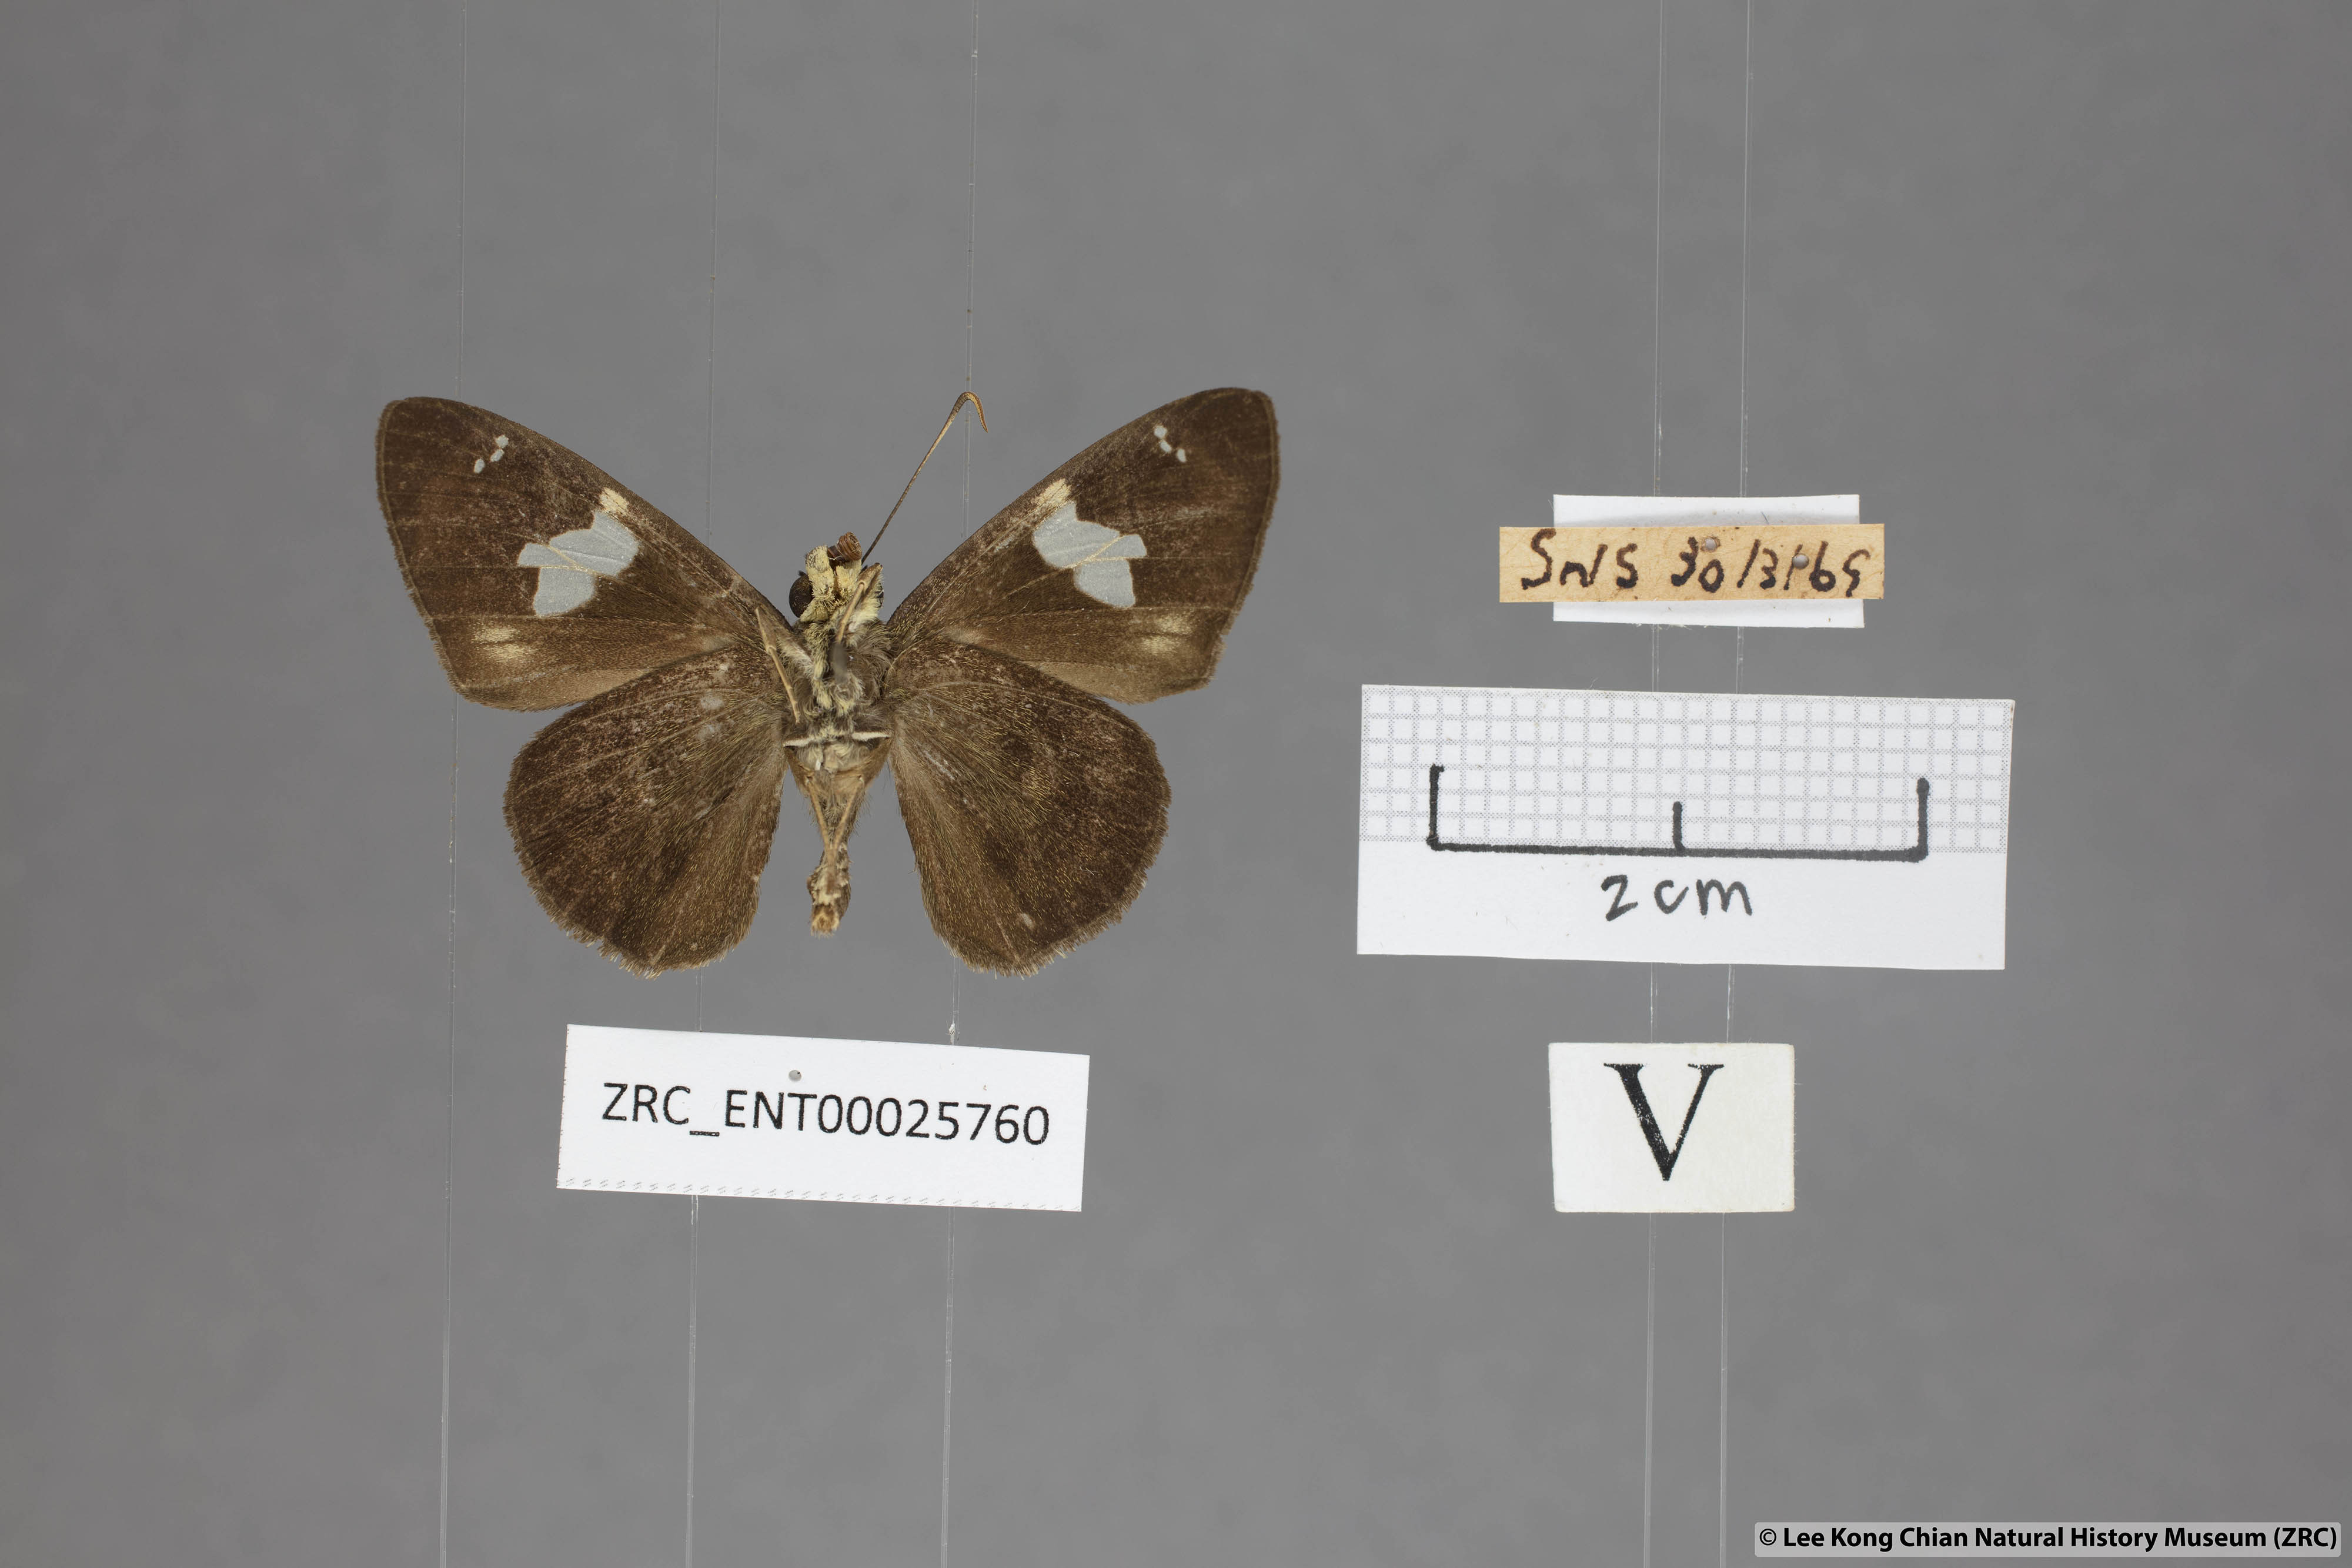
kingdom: Animalia
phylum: Arthropoda
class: Insecta
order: Lepidoptera
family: Hesperiidae
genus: Celaenorrhinus
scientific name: Celaenorrhinus asmara
